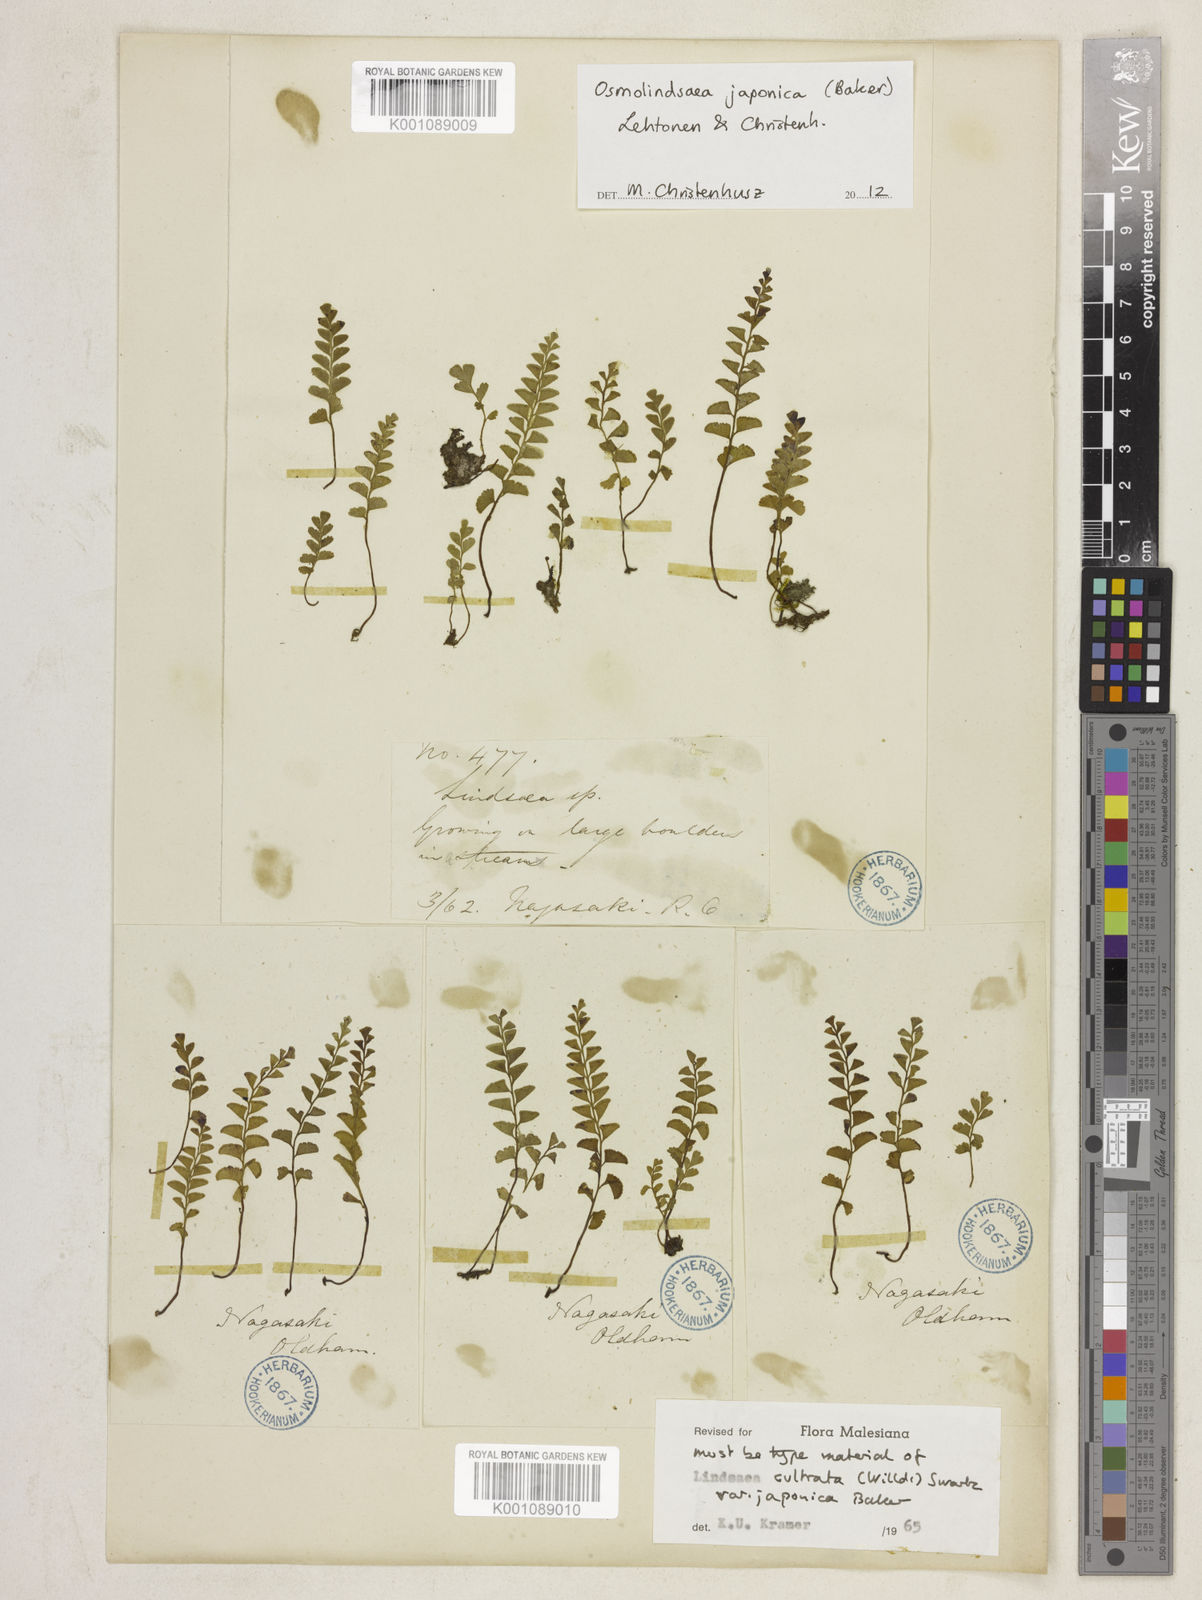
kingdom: Plantae
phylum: Tracheophyta
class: Polypodiopsida
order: Polypodiales
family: Lindsaeaceae
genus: Osmolindsaea
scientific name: Osmolindsaea japonica
